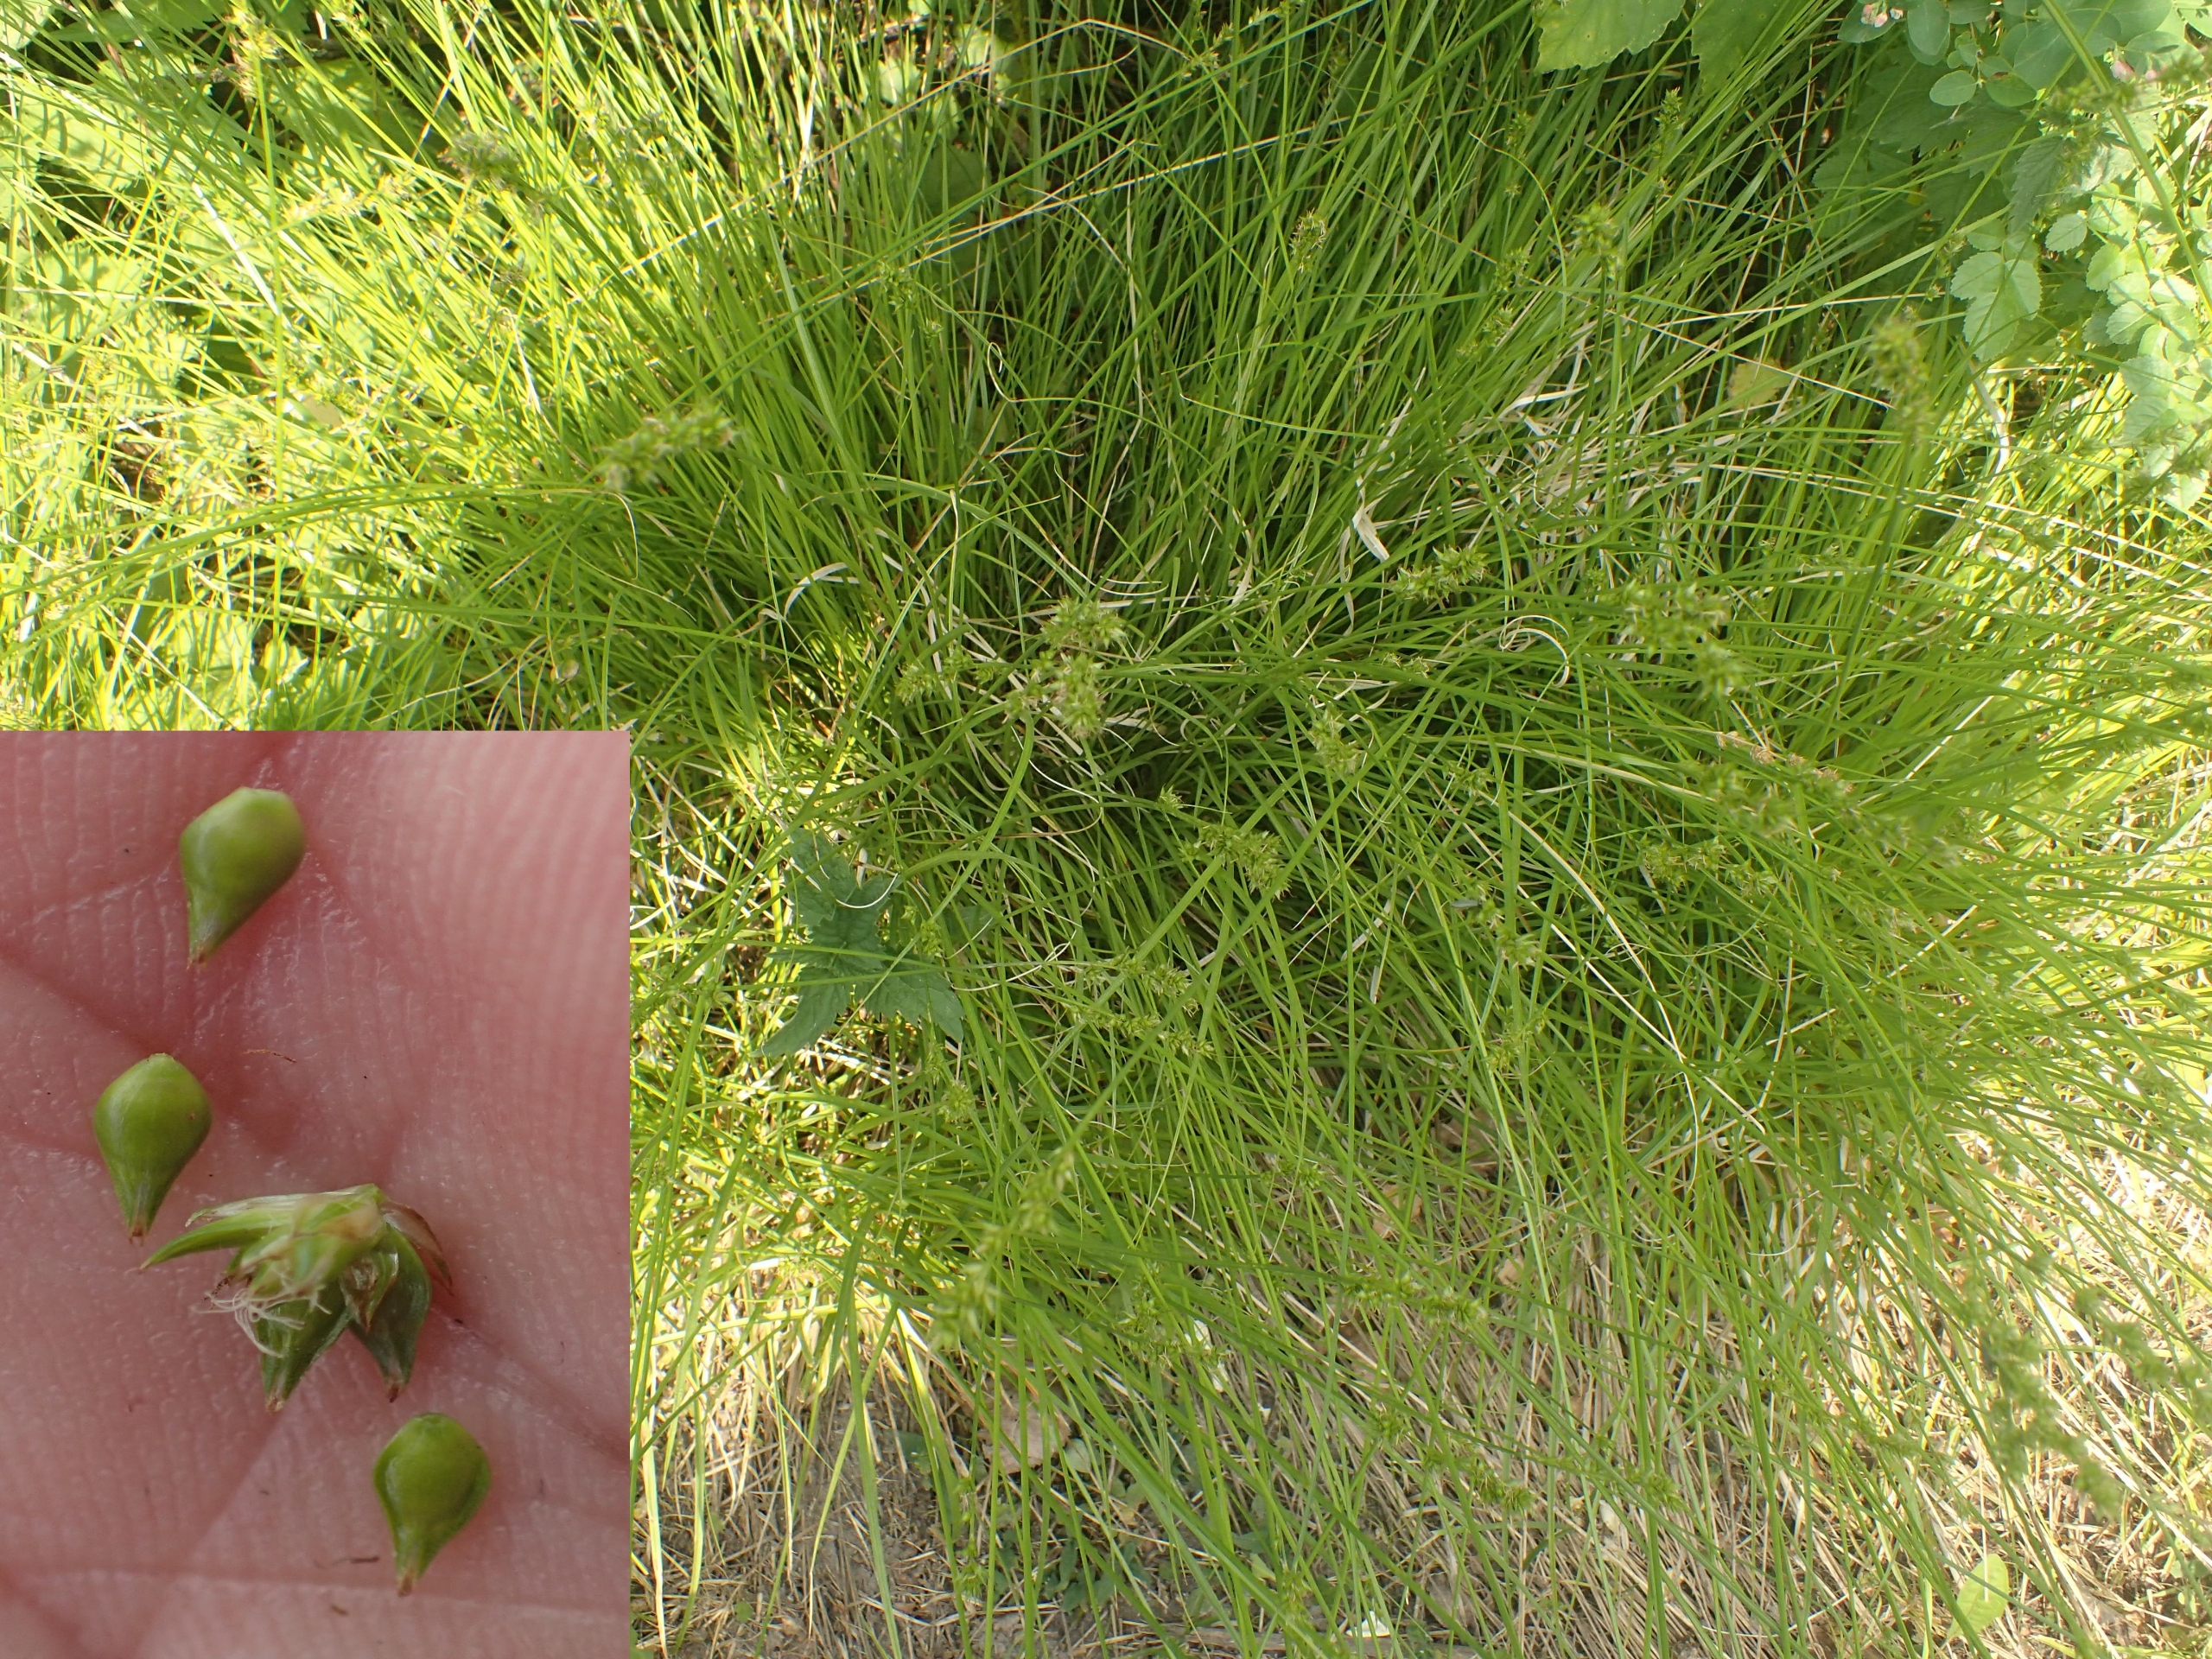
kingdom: Plantae
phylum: Tracheophyta
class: Liliopsida
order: Poales
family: Cyperaceae
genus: Carex
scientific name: Carex spicata
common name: Spidskapslet star
